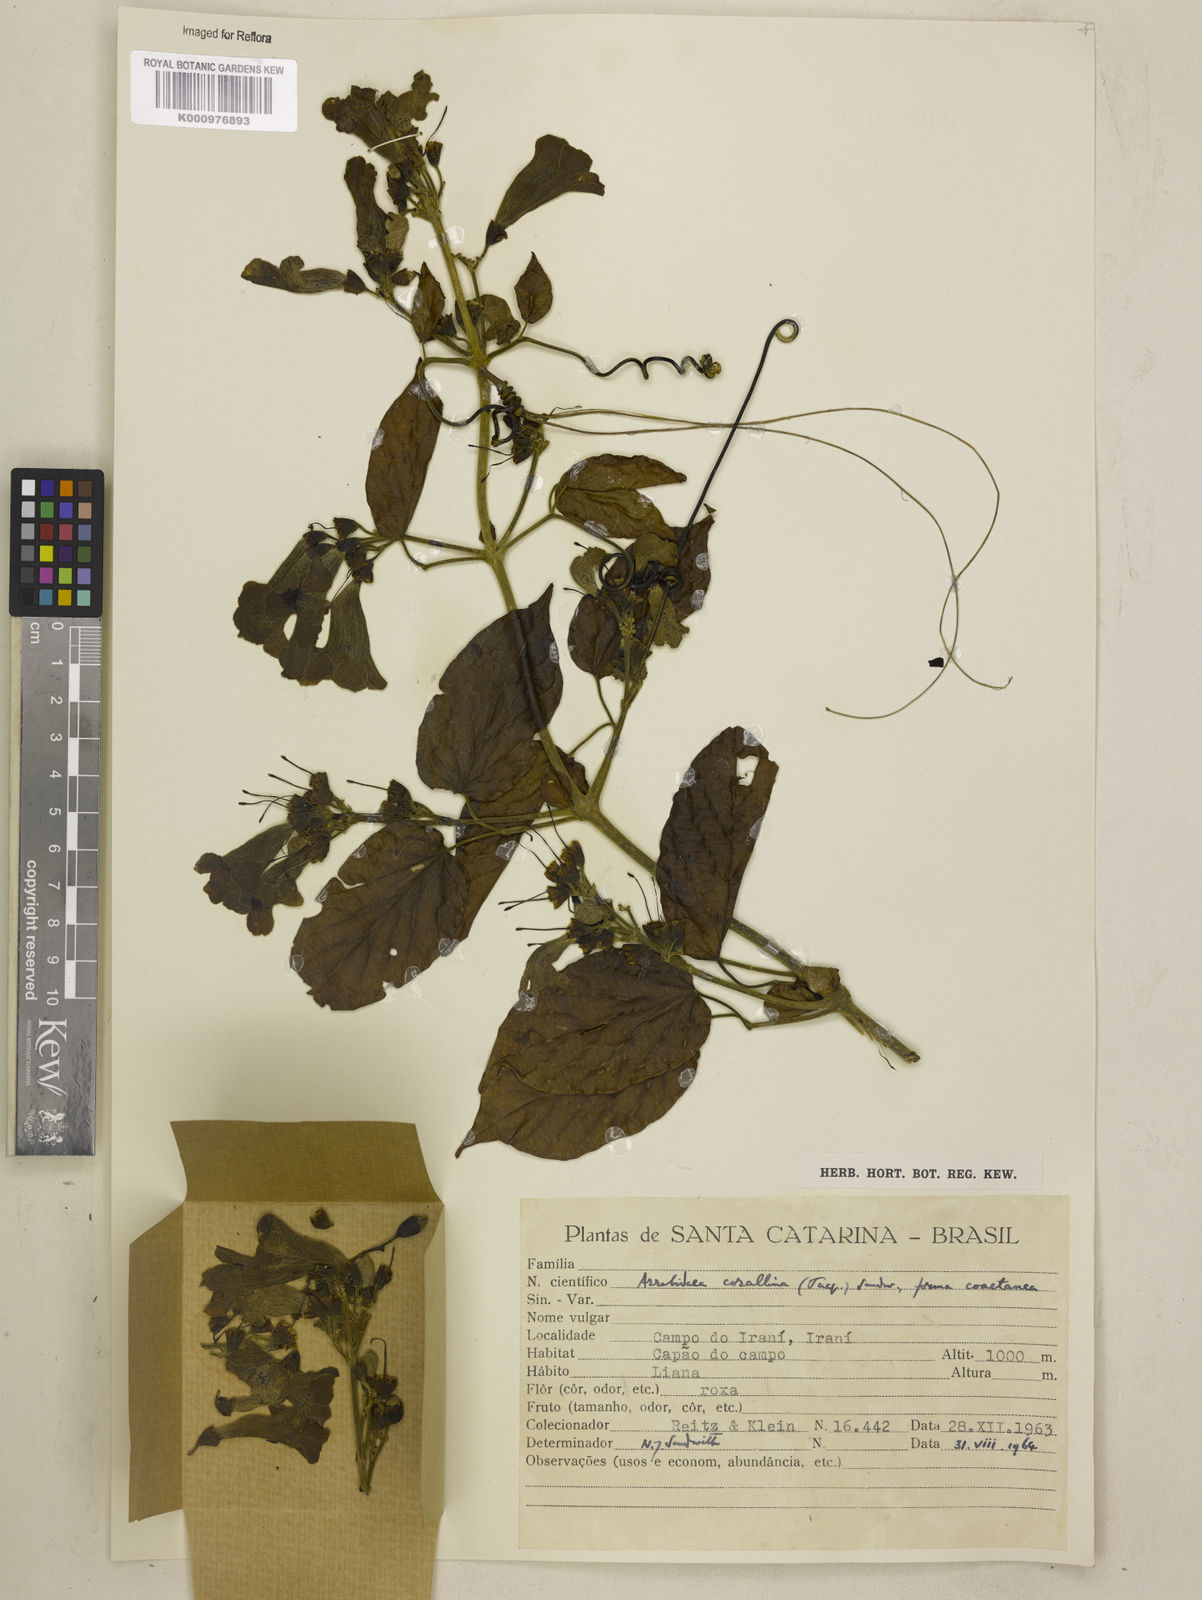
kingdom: Plantae
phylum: Tracheophyta
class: Magnoliopsida
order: Lamiales
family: Bignoniaceae
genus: Tanaecium
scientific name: Tanaecium dichotomum
